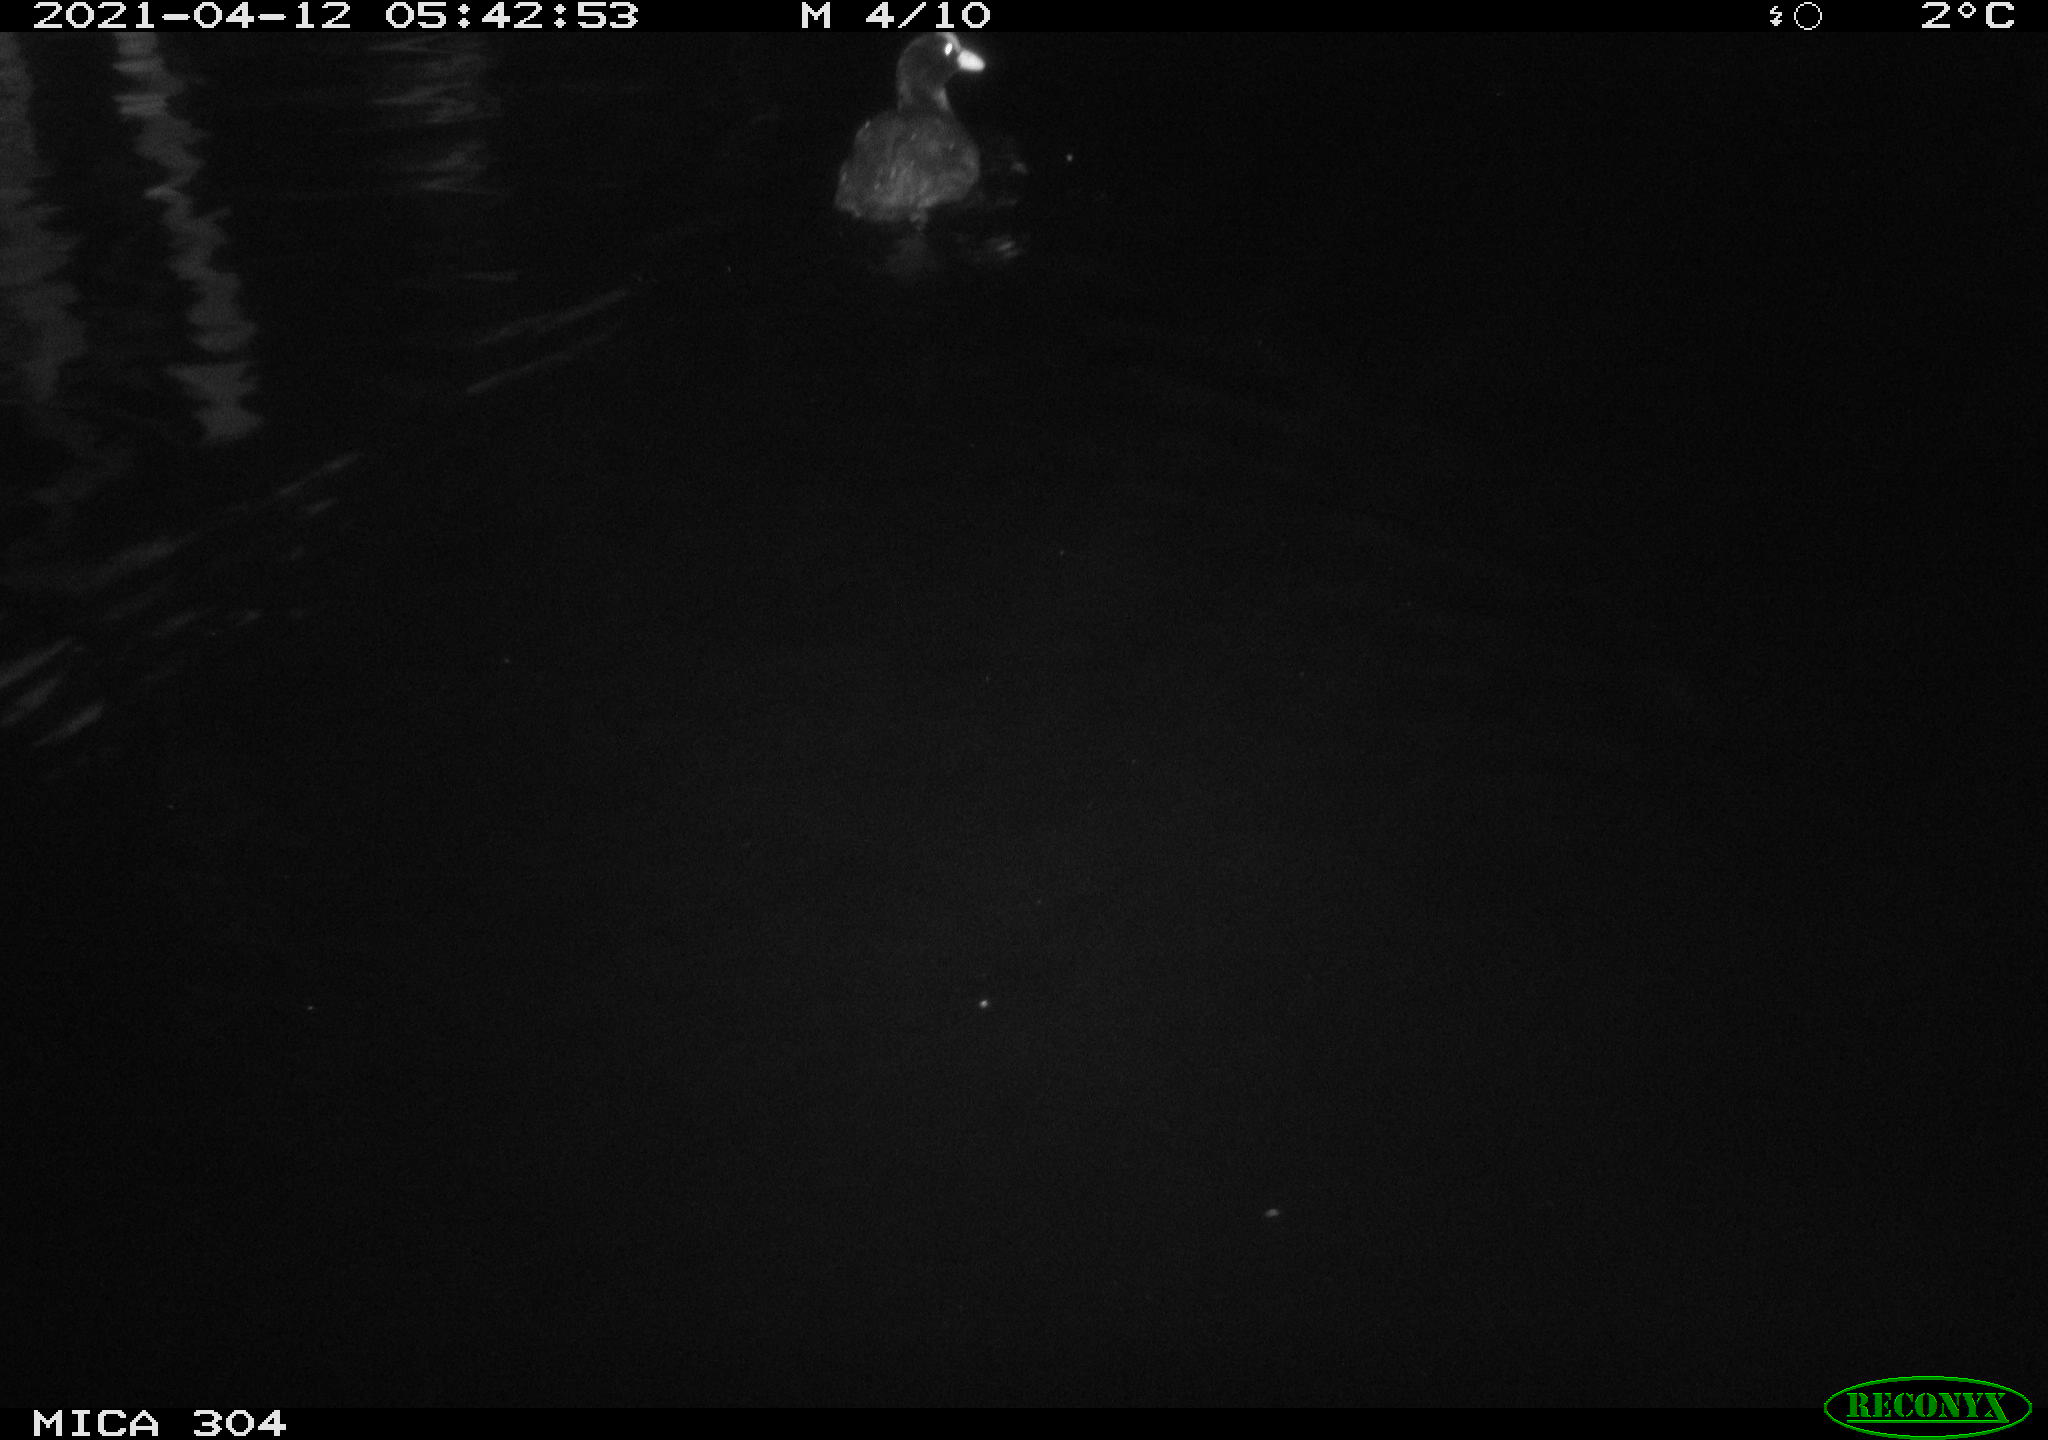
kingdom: Animalia
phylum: Chordata
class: Aves
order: Gruiformes
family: Rallidae
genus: Fulica
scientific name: Fulica atra
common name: Eurasian coot
